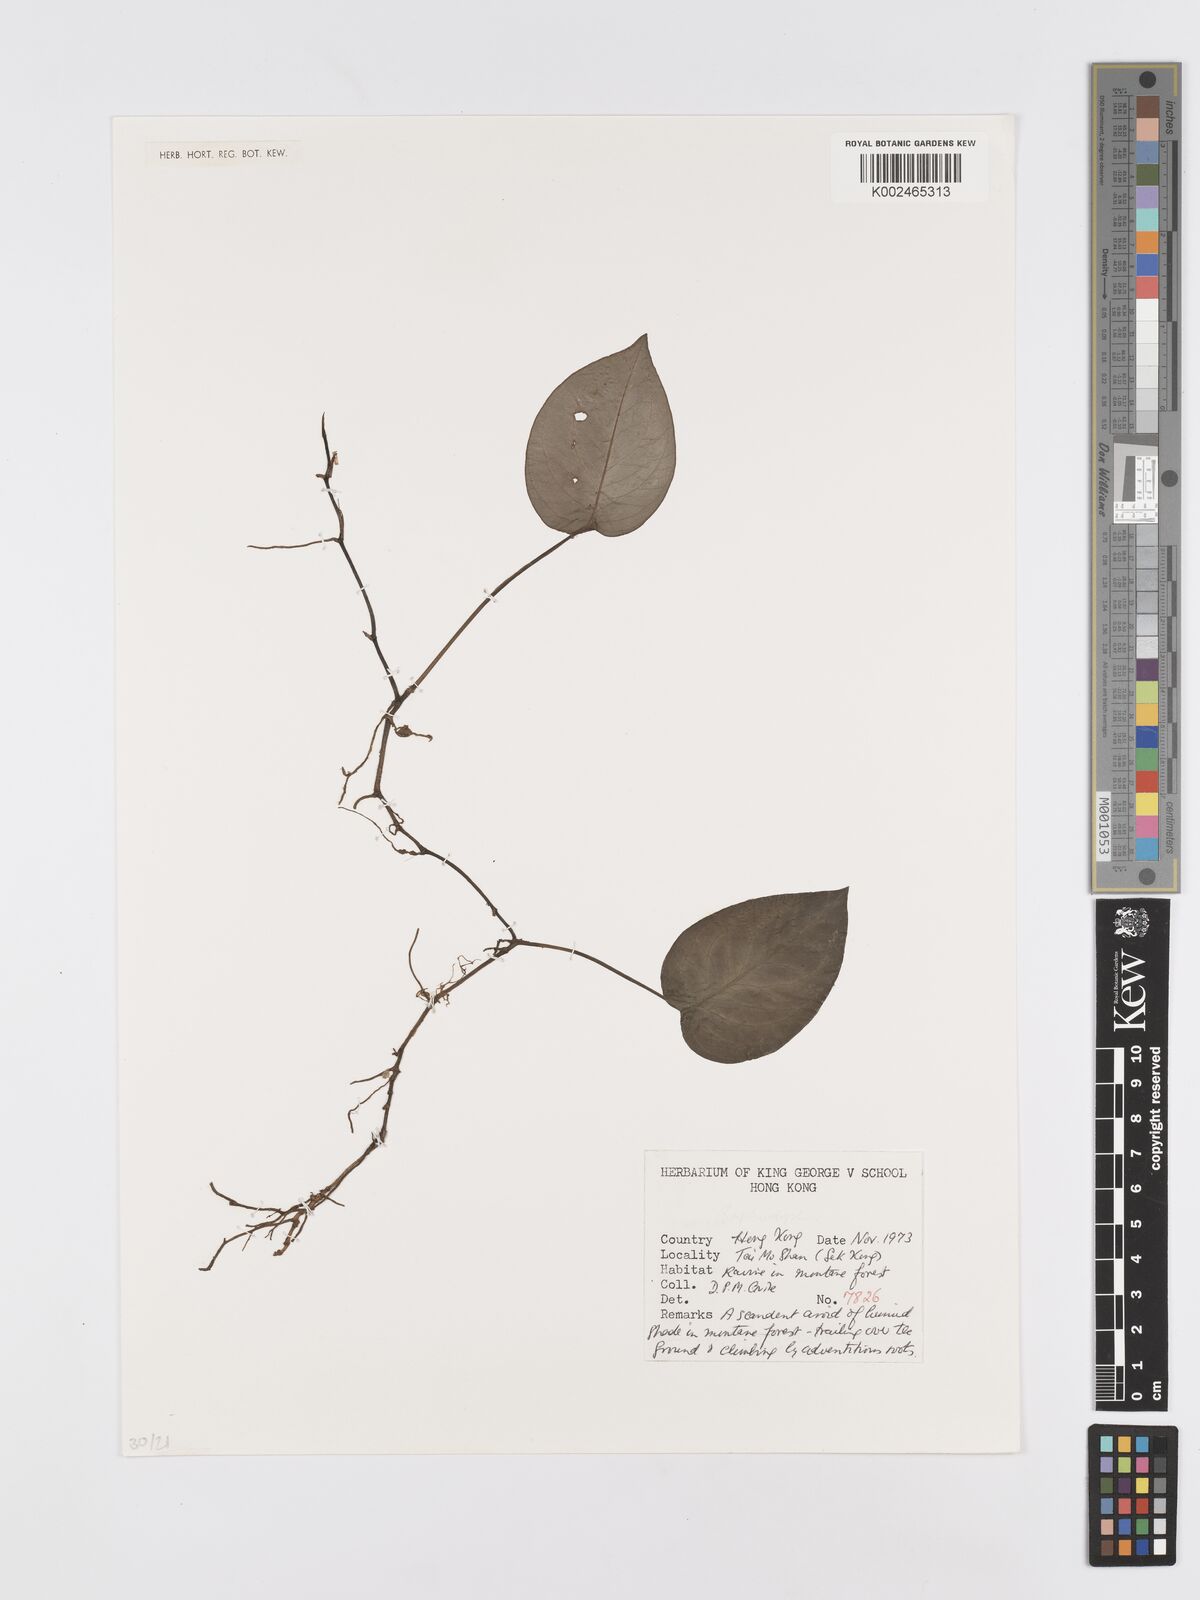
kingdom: Plantae
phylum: Tracheophyta
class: Liliopsida
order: Alismatales
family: Araceae
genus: Rhaphidophora
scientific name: Rhaphidophora
